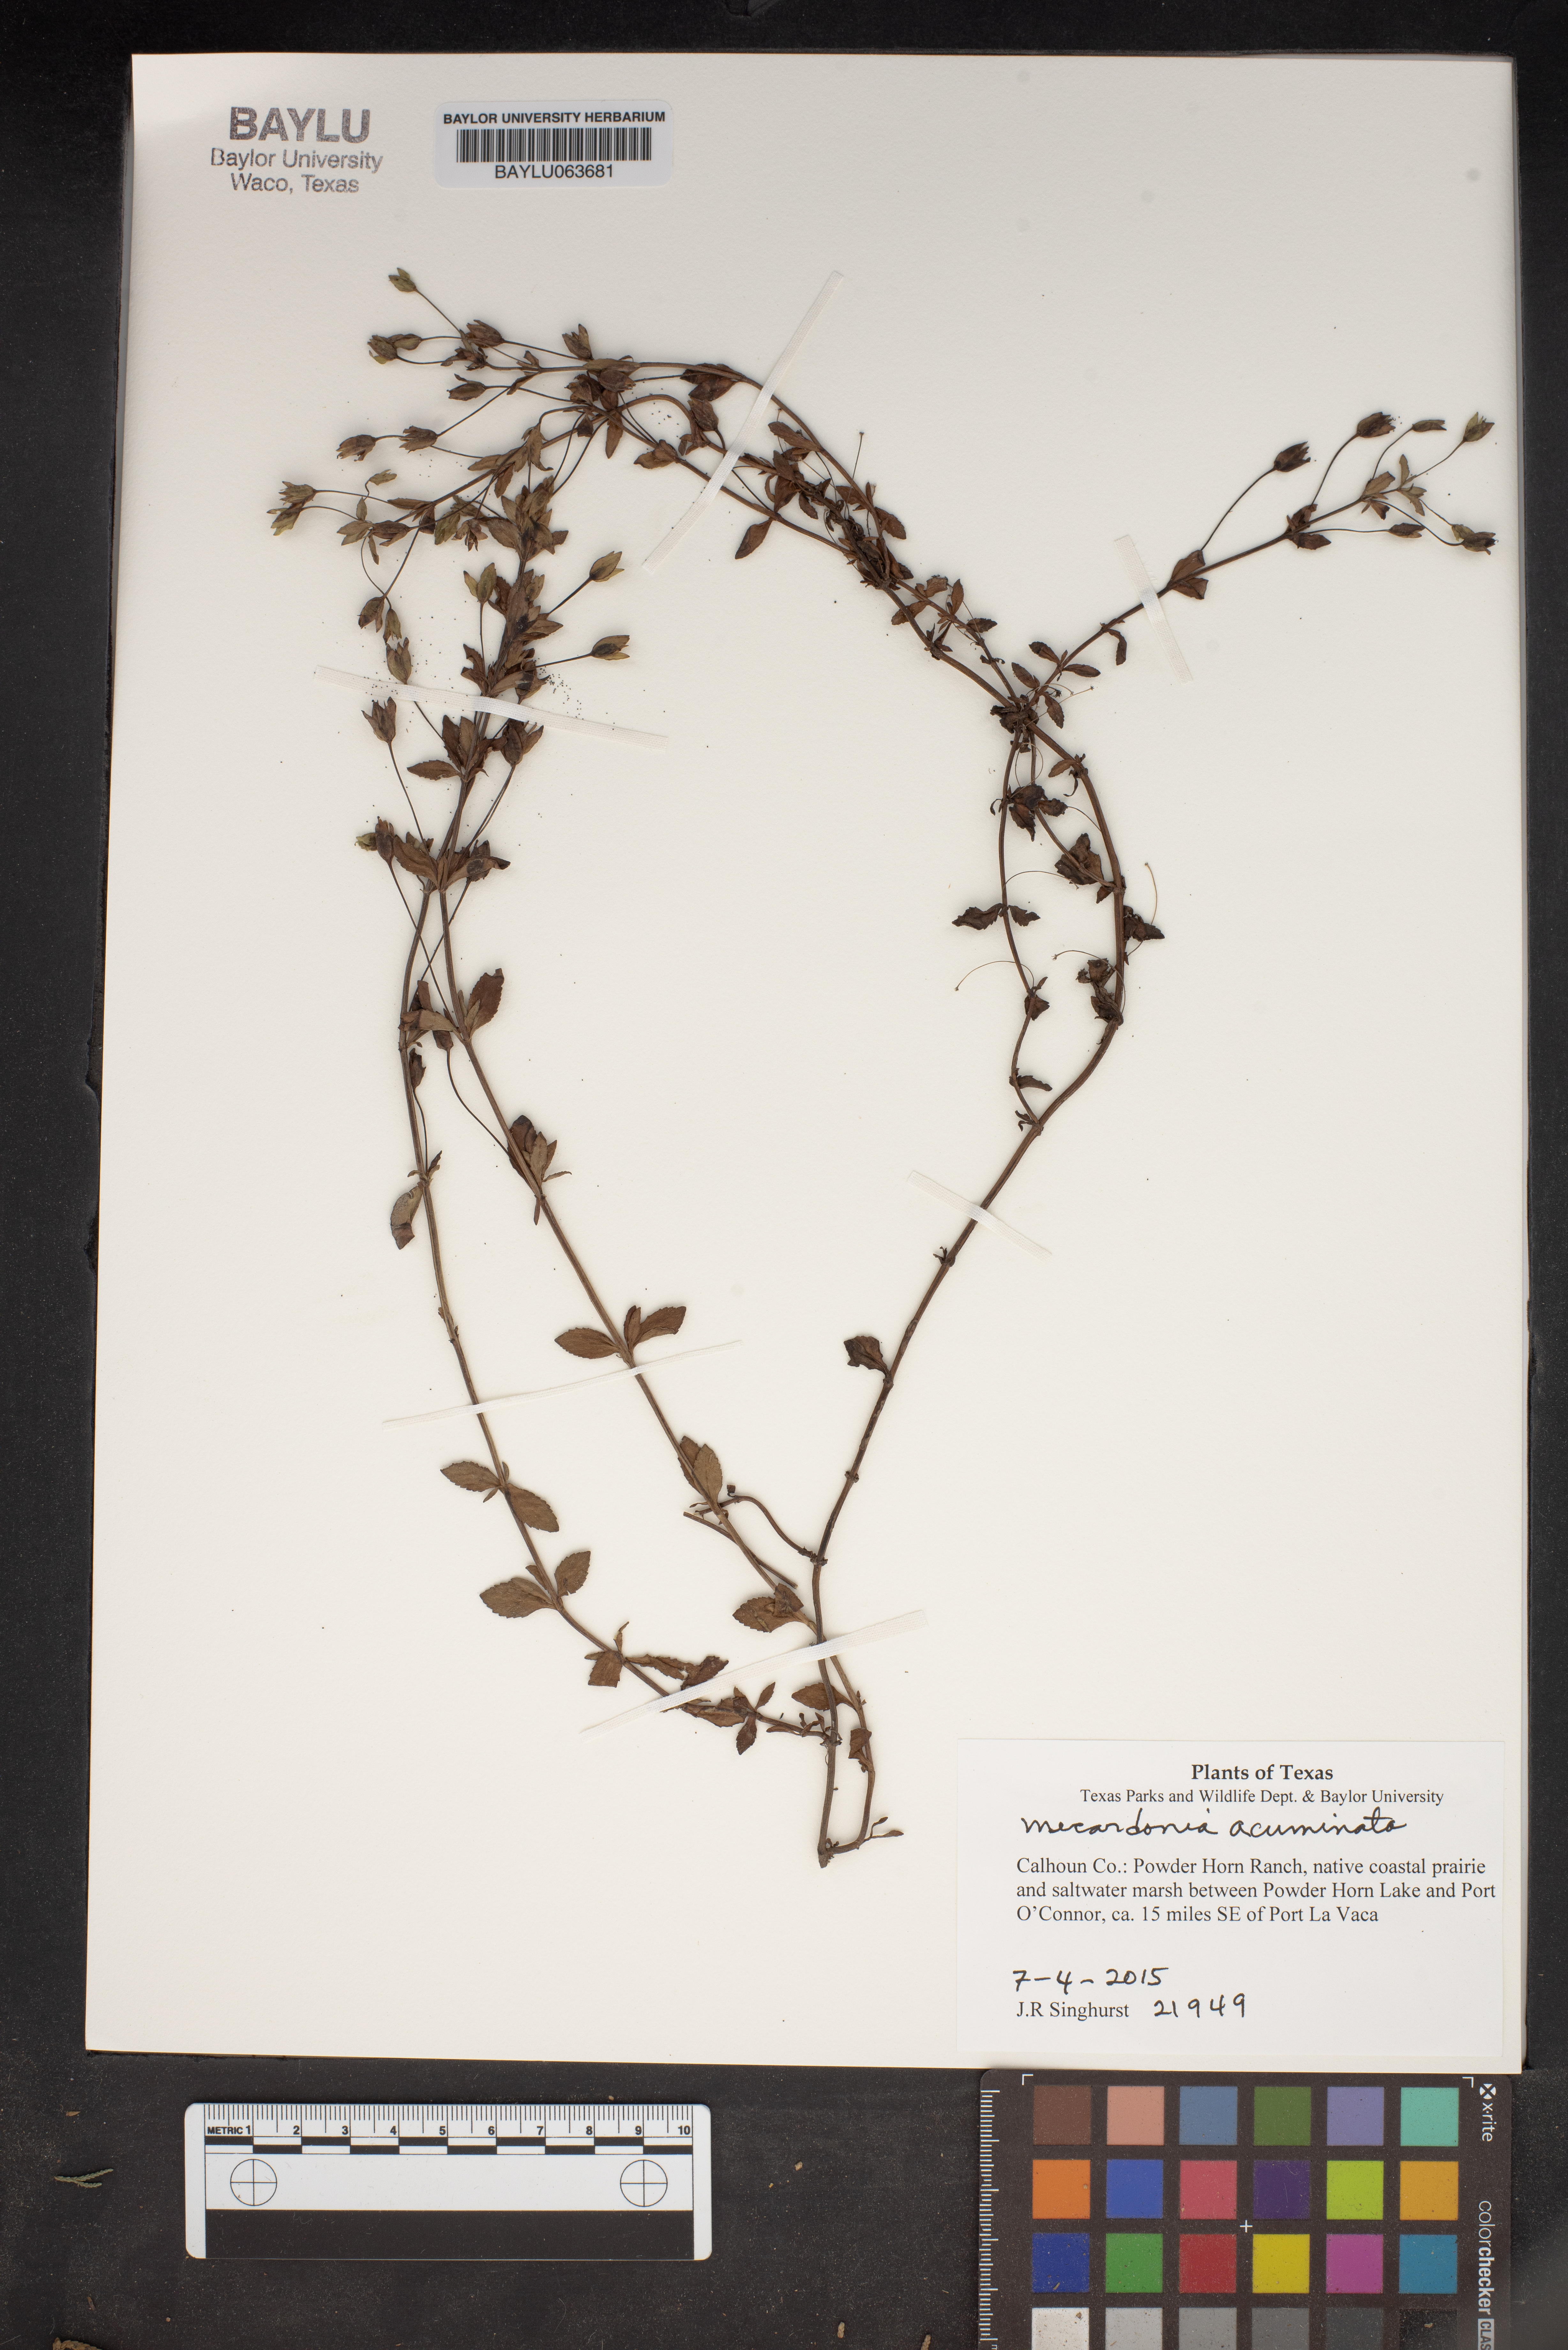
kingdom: Plantae
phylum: Tracheophyta
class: Magnoliopsida
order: Lamiales
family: Plantaginaceae
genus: Mecardonia
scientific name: Mecardonia acuminata
